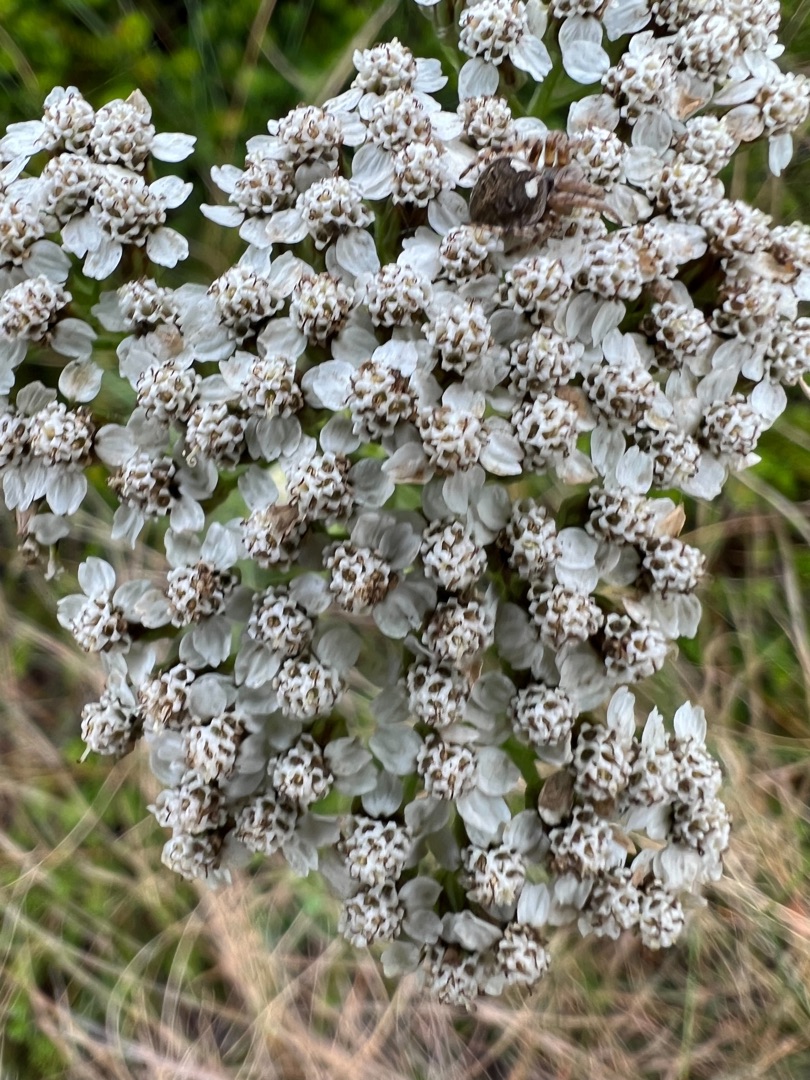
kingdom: Plantae
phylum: Tracheophyta
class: Magnoliopsida
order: Asterales
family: Asteraceae
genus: Achillea
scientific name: Achillea millefolium
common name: Almindelig røllike
